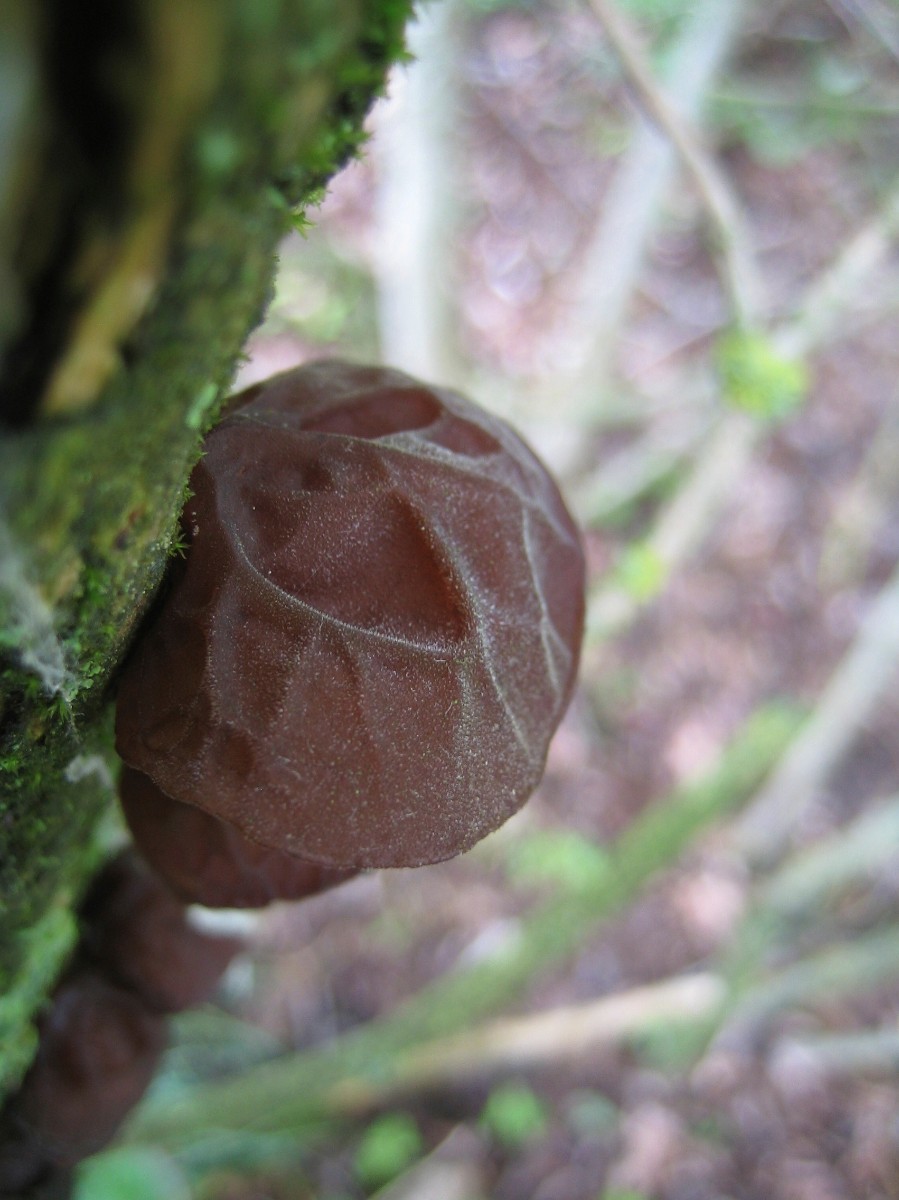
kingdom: Fungi
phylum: Basidiomycota
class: Agaricomycetes
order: Auriculariales
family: Auriculariaceae
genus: Auricularia
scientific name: Auricularia auricula-judae
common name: almindelig judasøre
